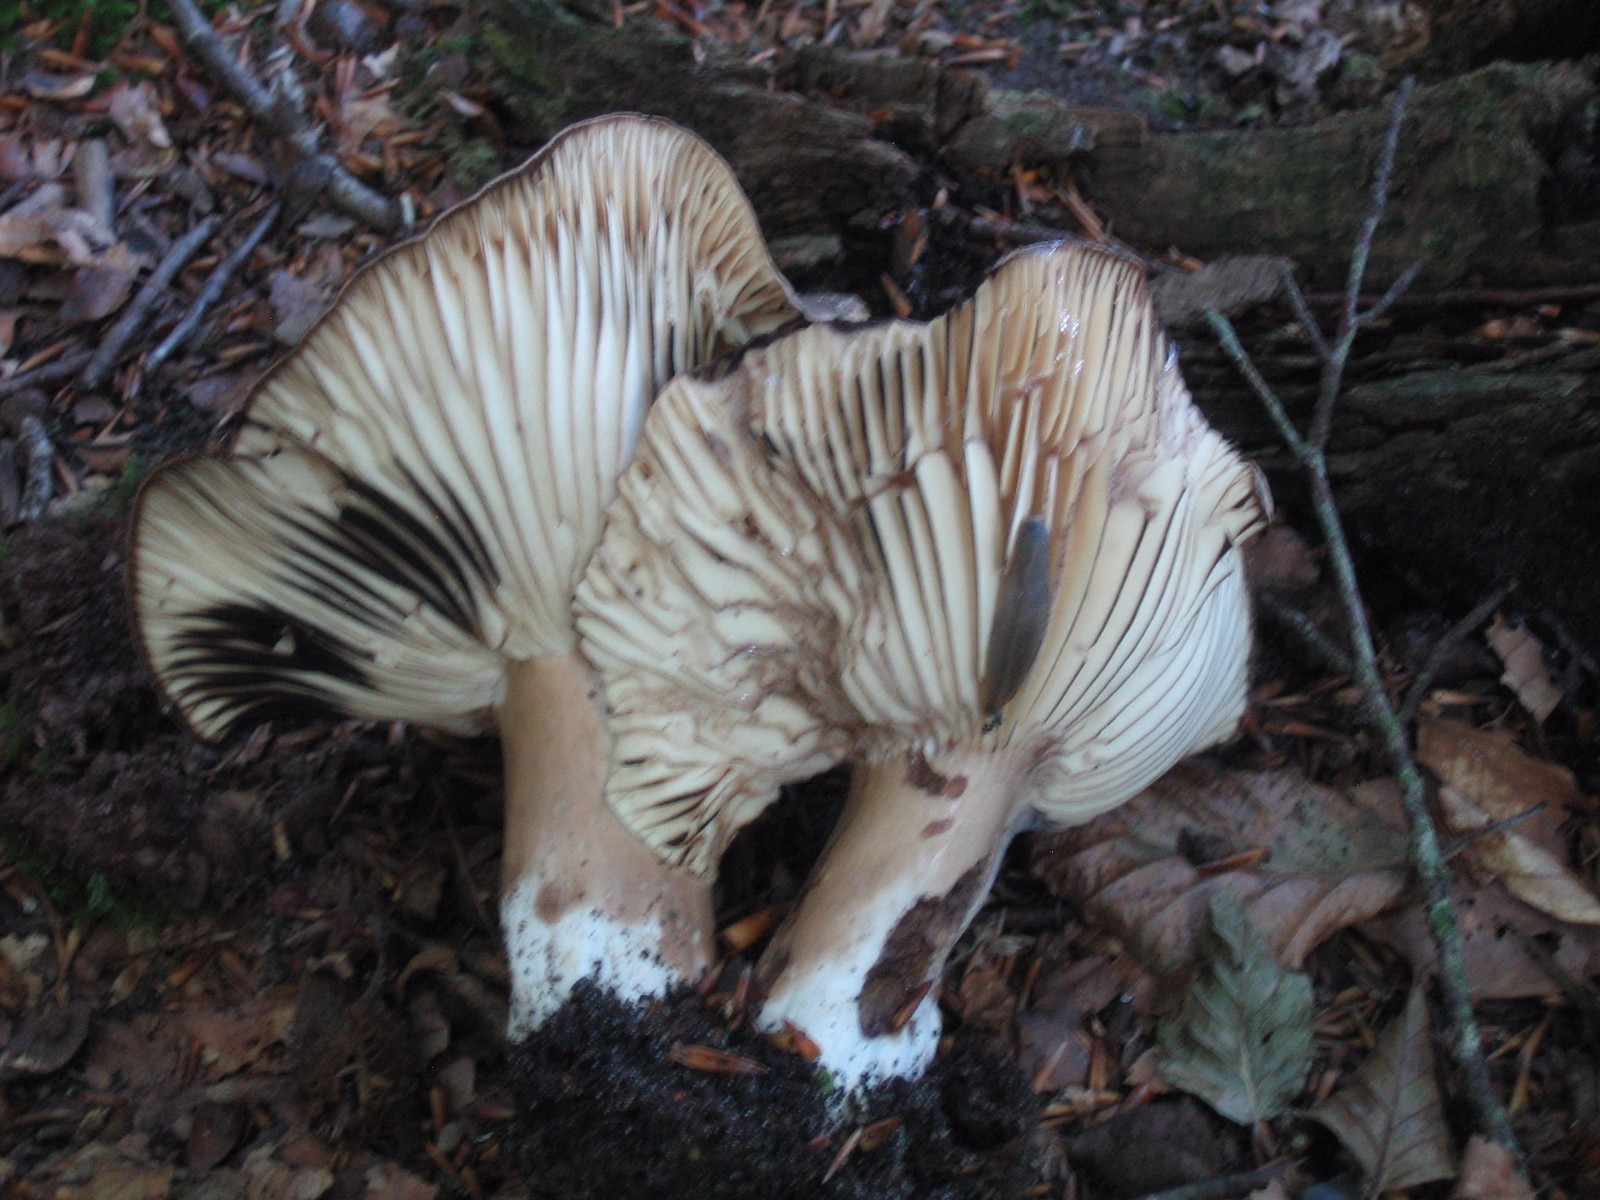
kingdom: Fungi
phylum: Basidiomycota
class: Agaricomycetes
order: Russulales
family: Russulaceae
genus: Russula
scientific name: Russula adusta
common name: sværtende skørhat
